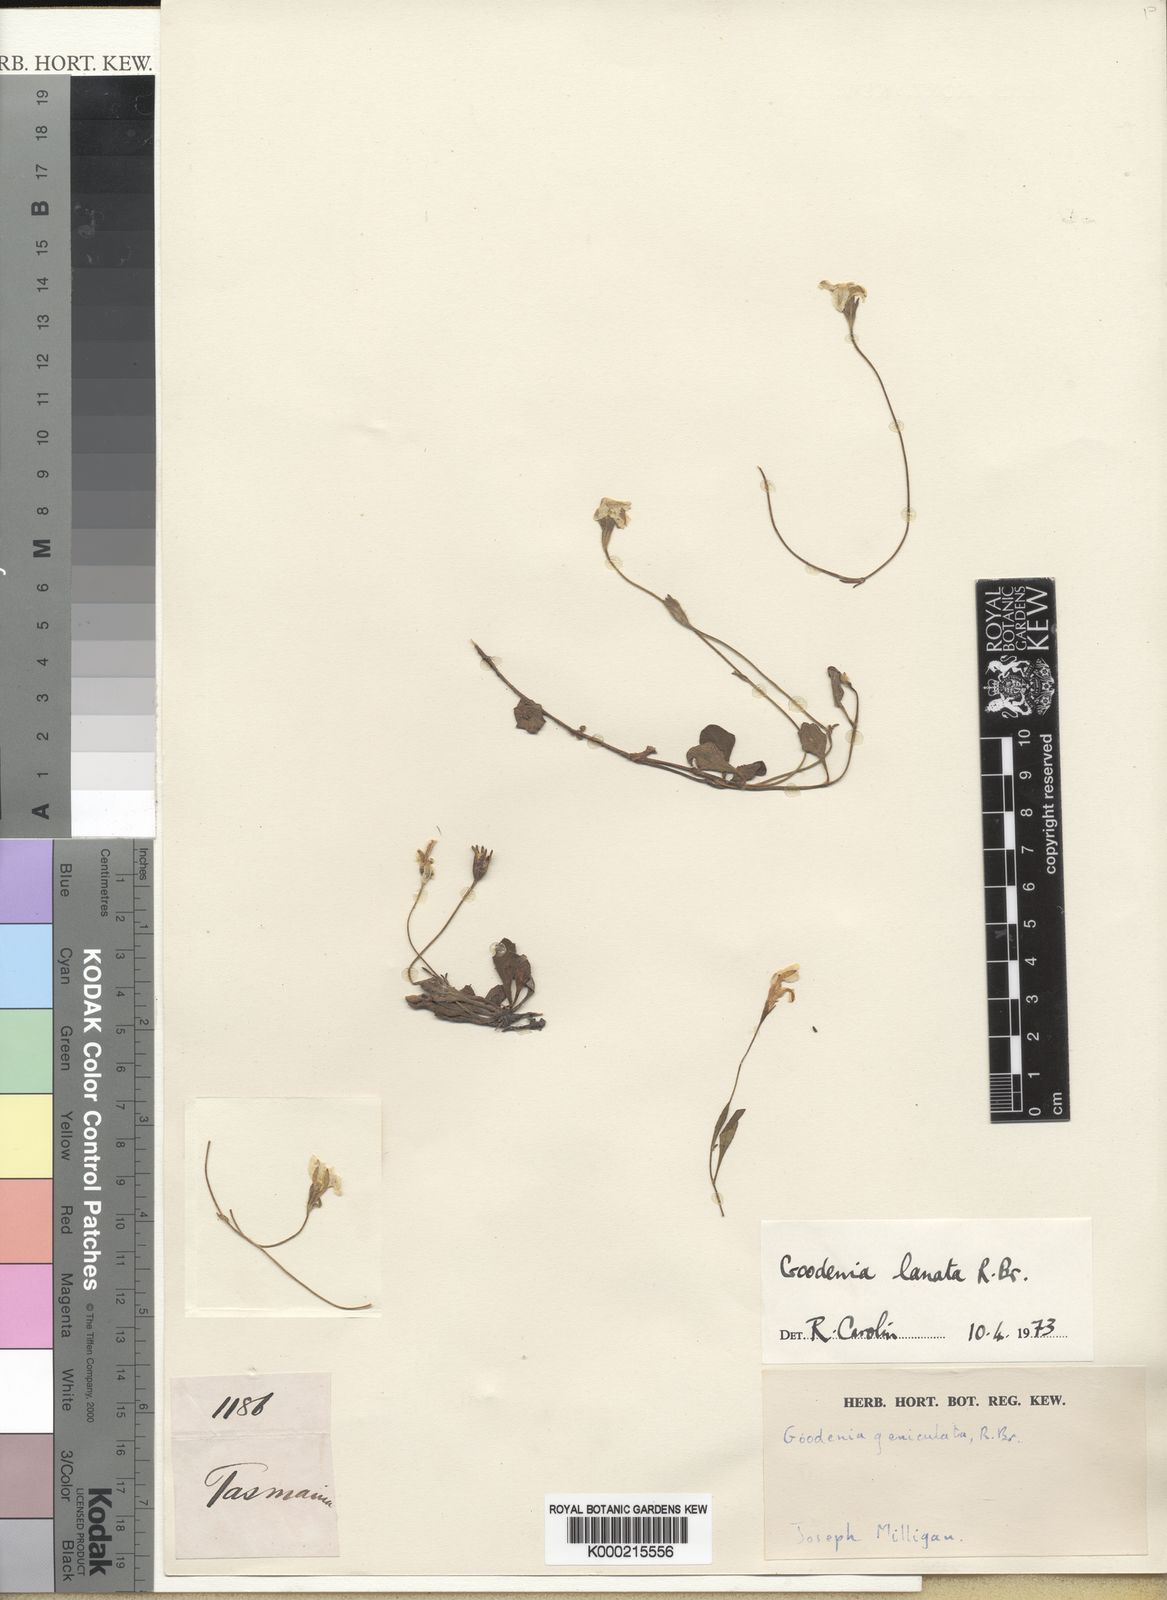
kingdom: Plantae
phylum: Tracheophyta
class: Magnoliopsida
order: Asterales
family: Goodeniaceae
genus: Goodenia
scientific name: Goodenia lanata
